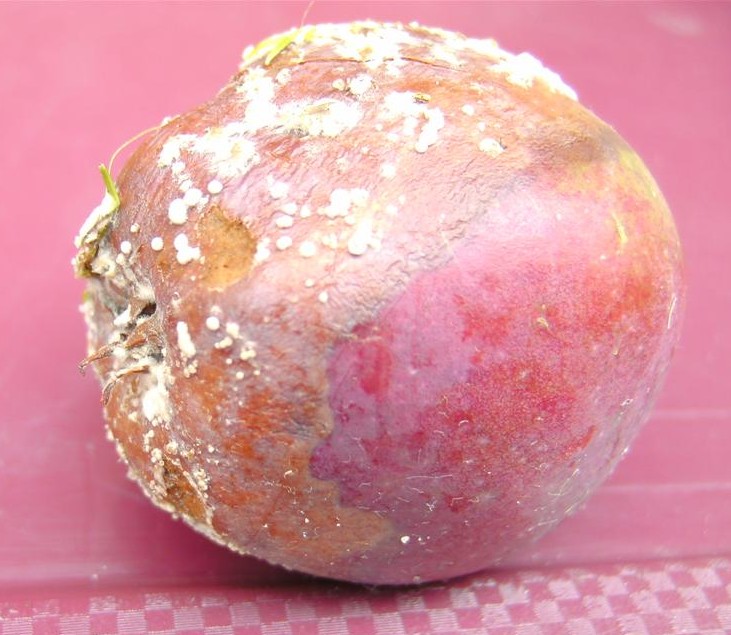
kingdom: Fungi
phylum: Ascomycota
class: Leotiomycetes
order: Helotiales
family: Sclerotiniaceae
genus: Monilinia
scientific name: Monilinia fructigena
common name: æble-knoldskive
